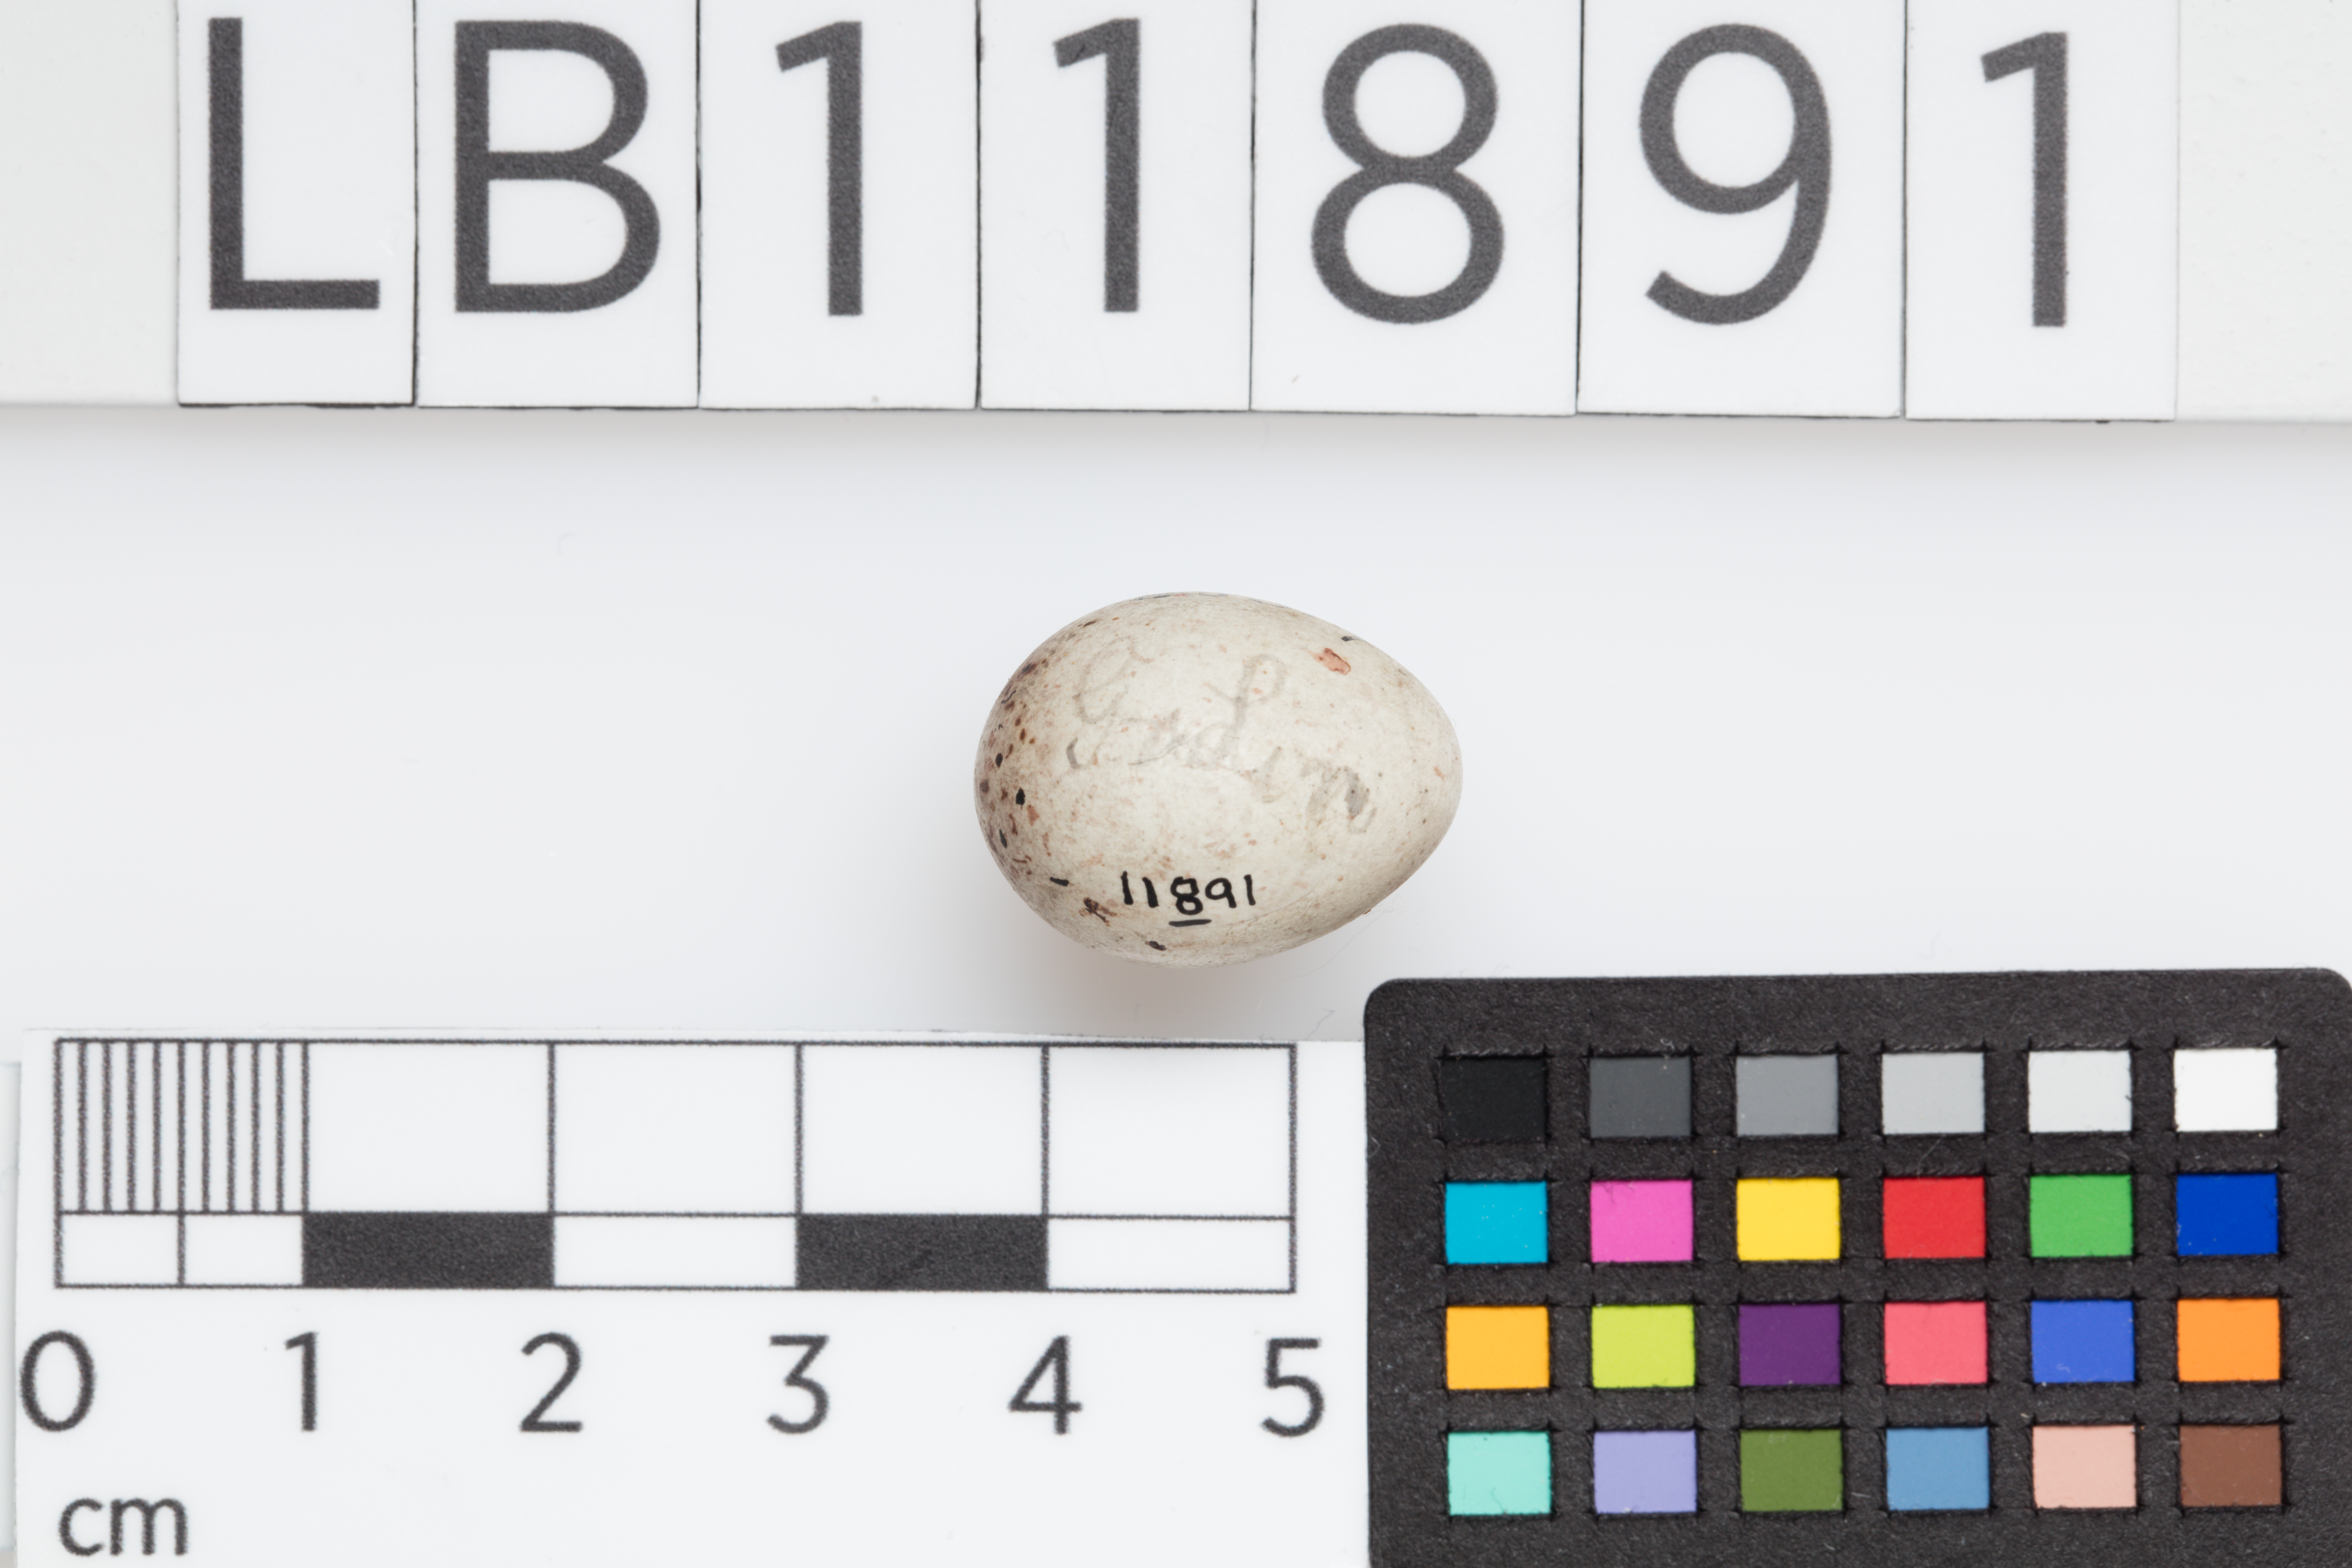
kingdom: Animalia
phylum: Chordata
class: Aves
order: Passeriformes
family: Fringillidae
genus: Linaria
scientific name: Linaria cannabina
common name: Common linnet
